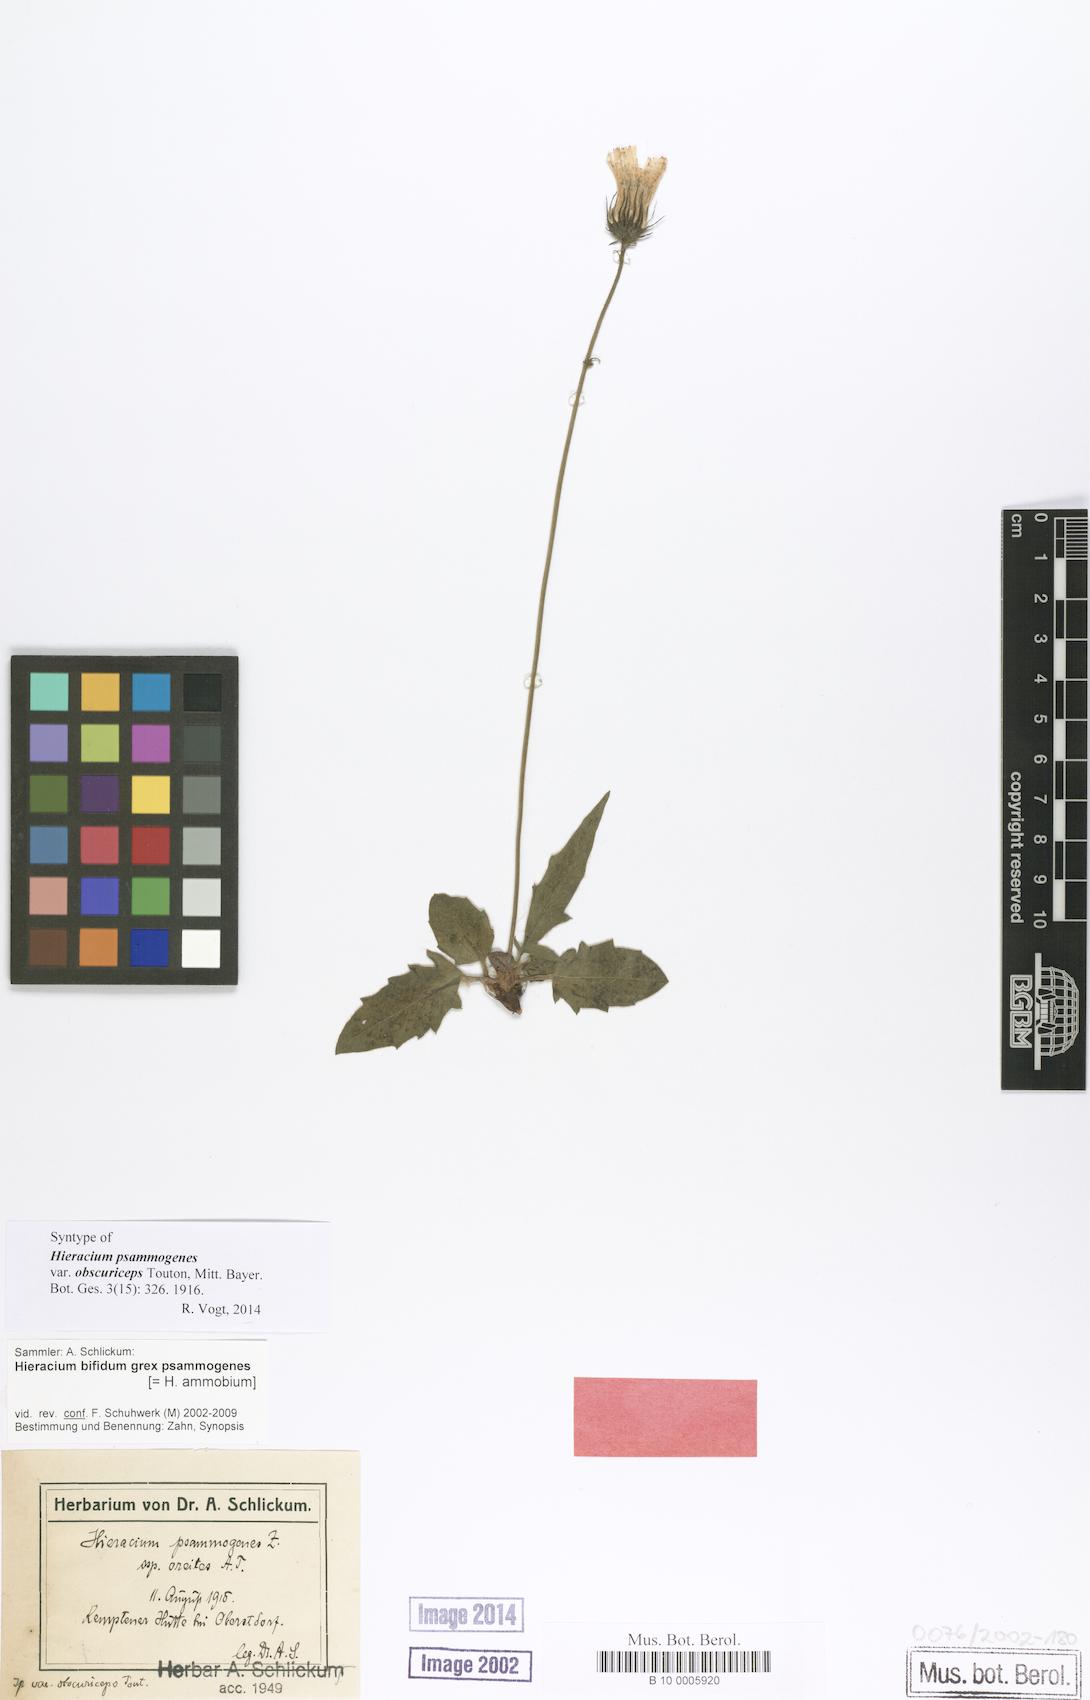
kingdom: Plantae
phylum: Tracheophyta
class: Magnoliopsida
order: Asterales
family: Asteraceae
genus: Hieracium
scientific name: Hieracium psammogenes
